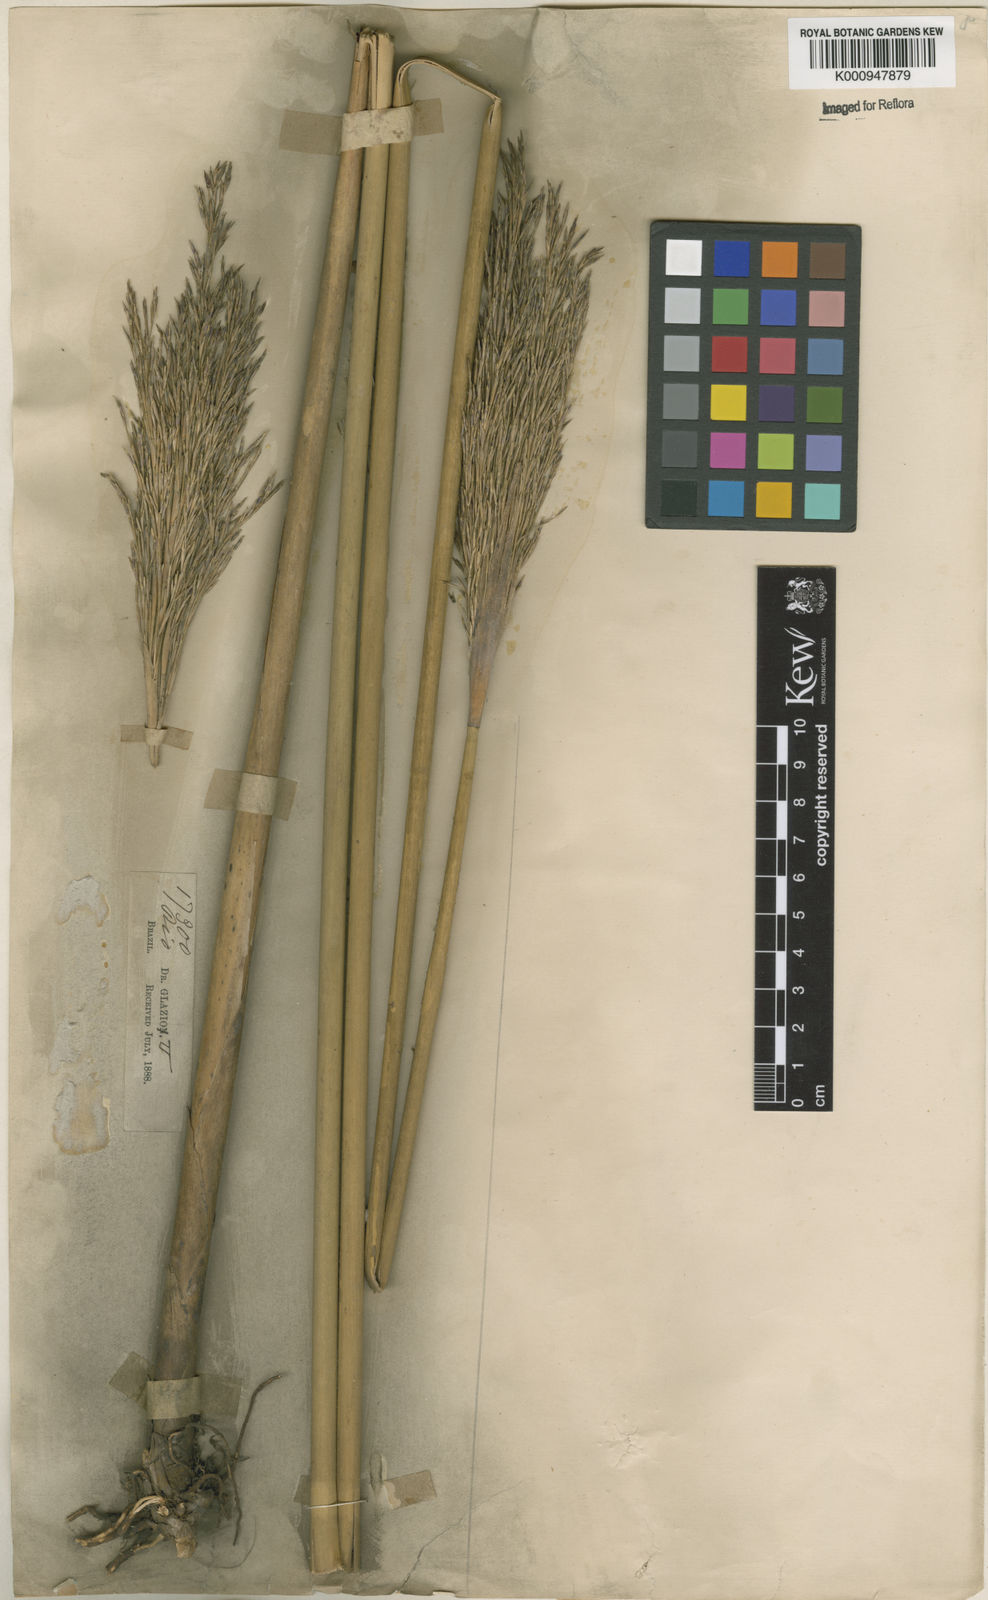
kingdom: Plantae
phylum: Tracheophyta
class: Liliopsida
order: Poales
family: Poaceae
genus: Glaziophyton
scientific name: Glaziophyton mirabile
